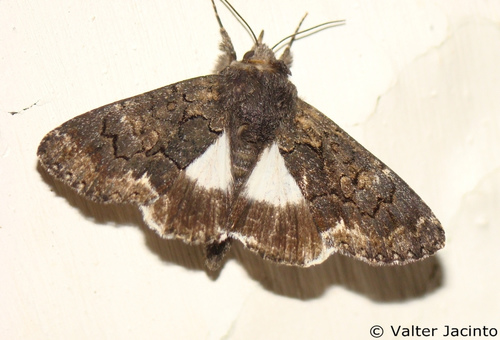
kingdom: Animalia
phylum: Arthropoda
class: Insecta
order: Lepidoptera
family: Erebidae
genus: Catephia
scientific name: Catephia alchymista
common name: Alchymist
